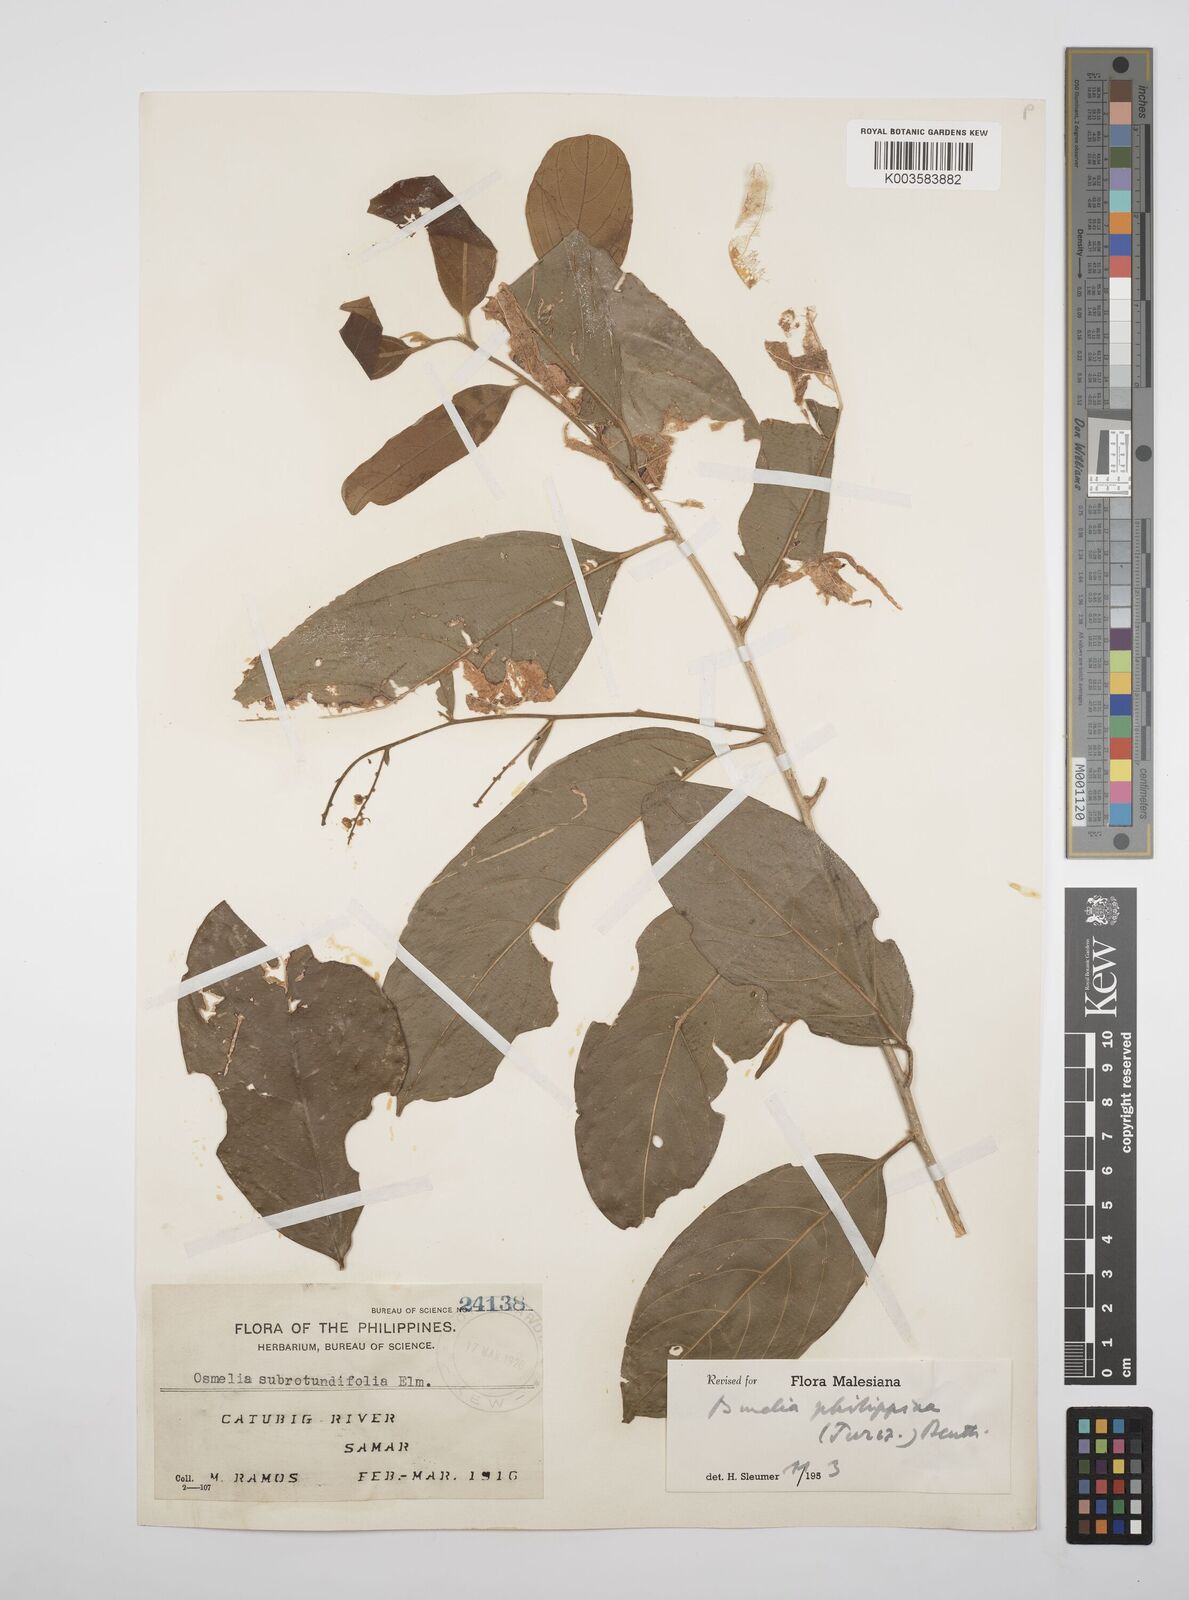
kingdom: Plantae
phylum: Tracheophyta
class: Magnoliopsida
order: Malpighiales
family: Salicaceae
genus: Osmelia
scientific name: Osmelia philippina
